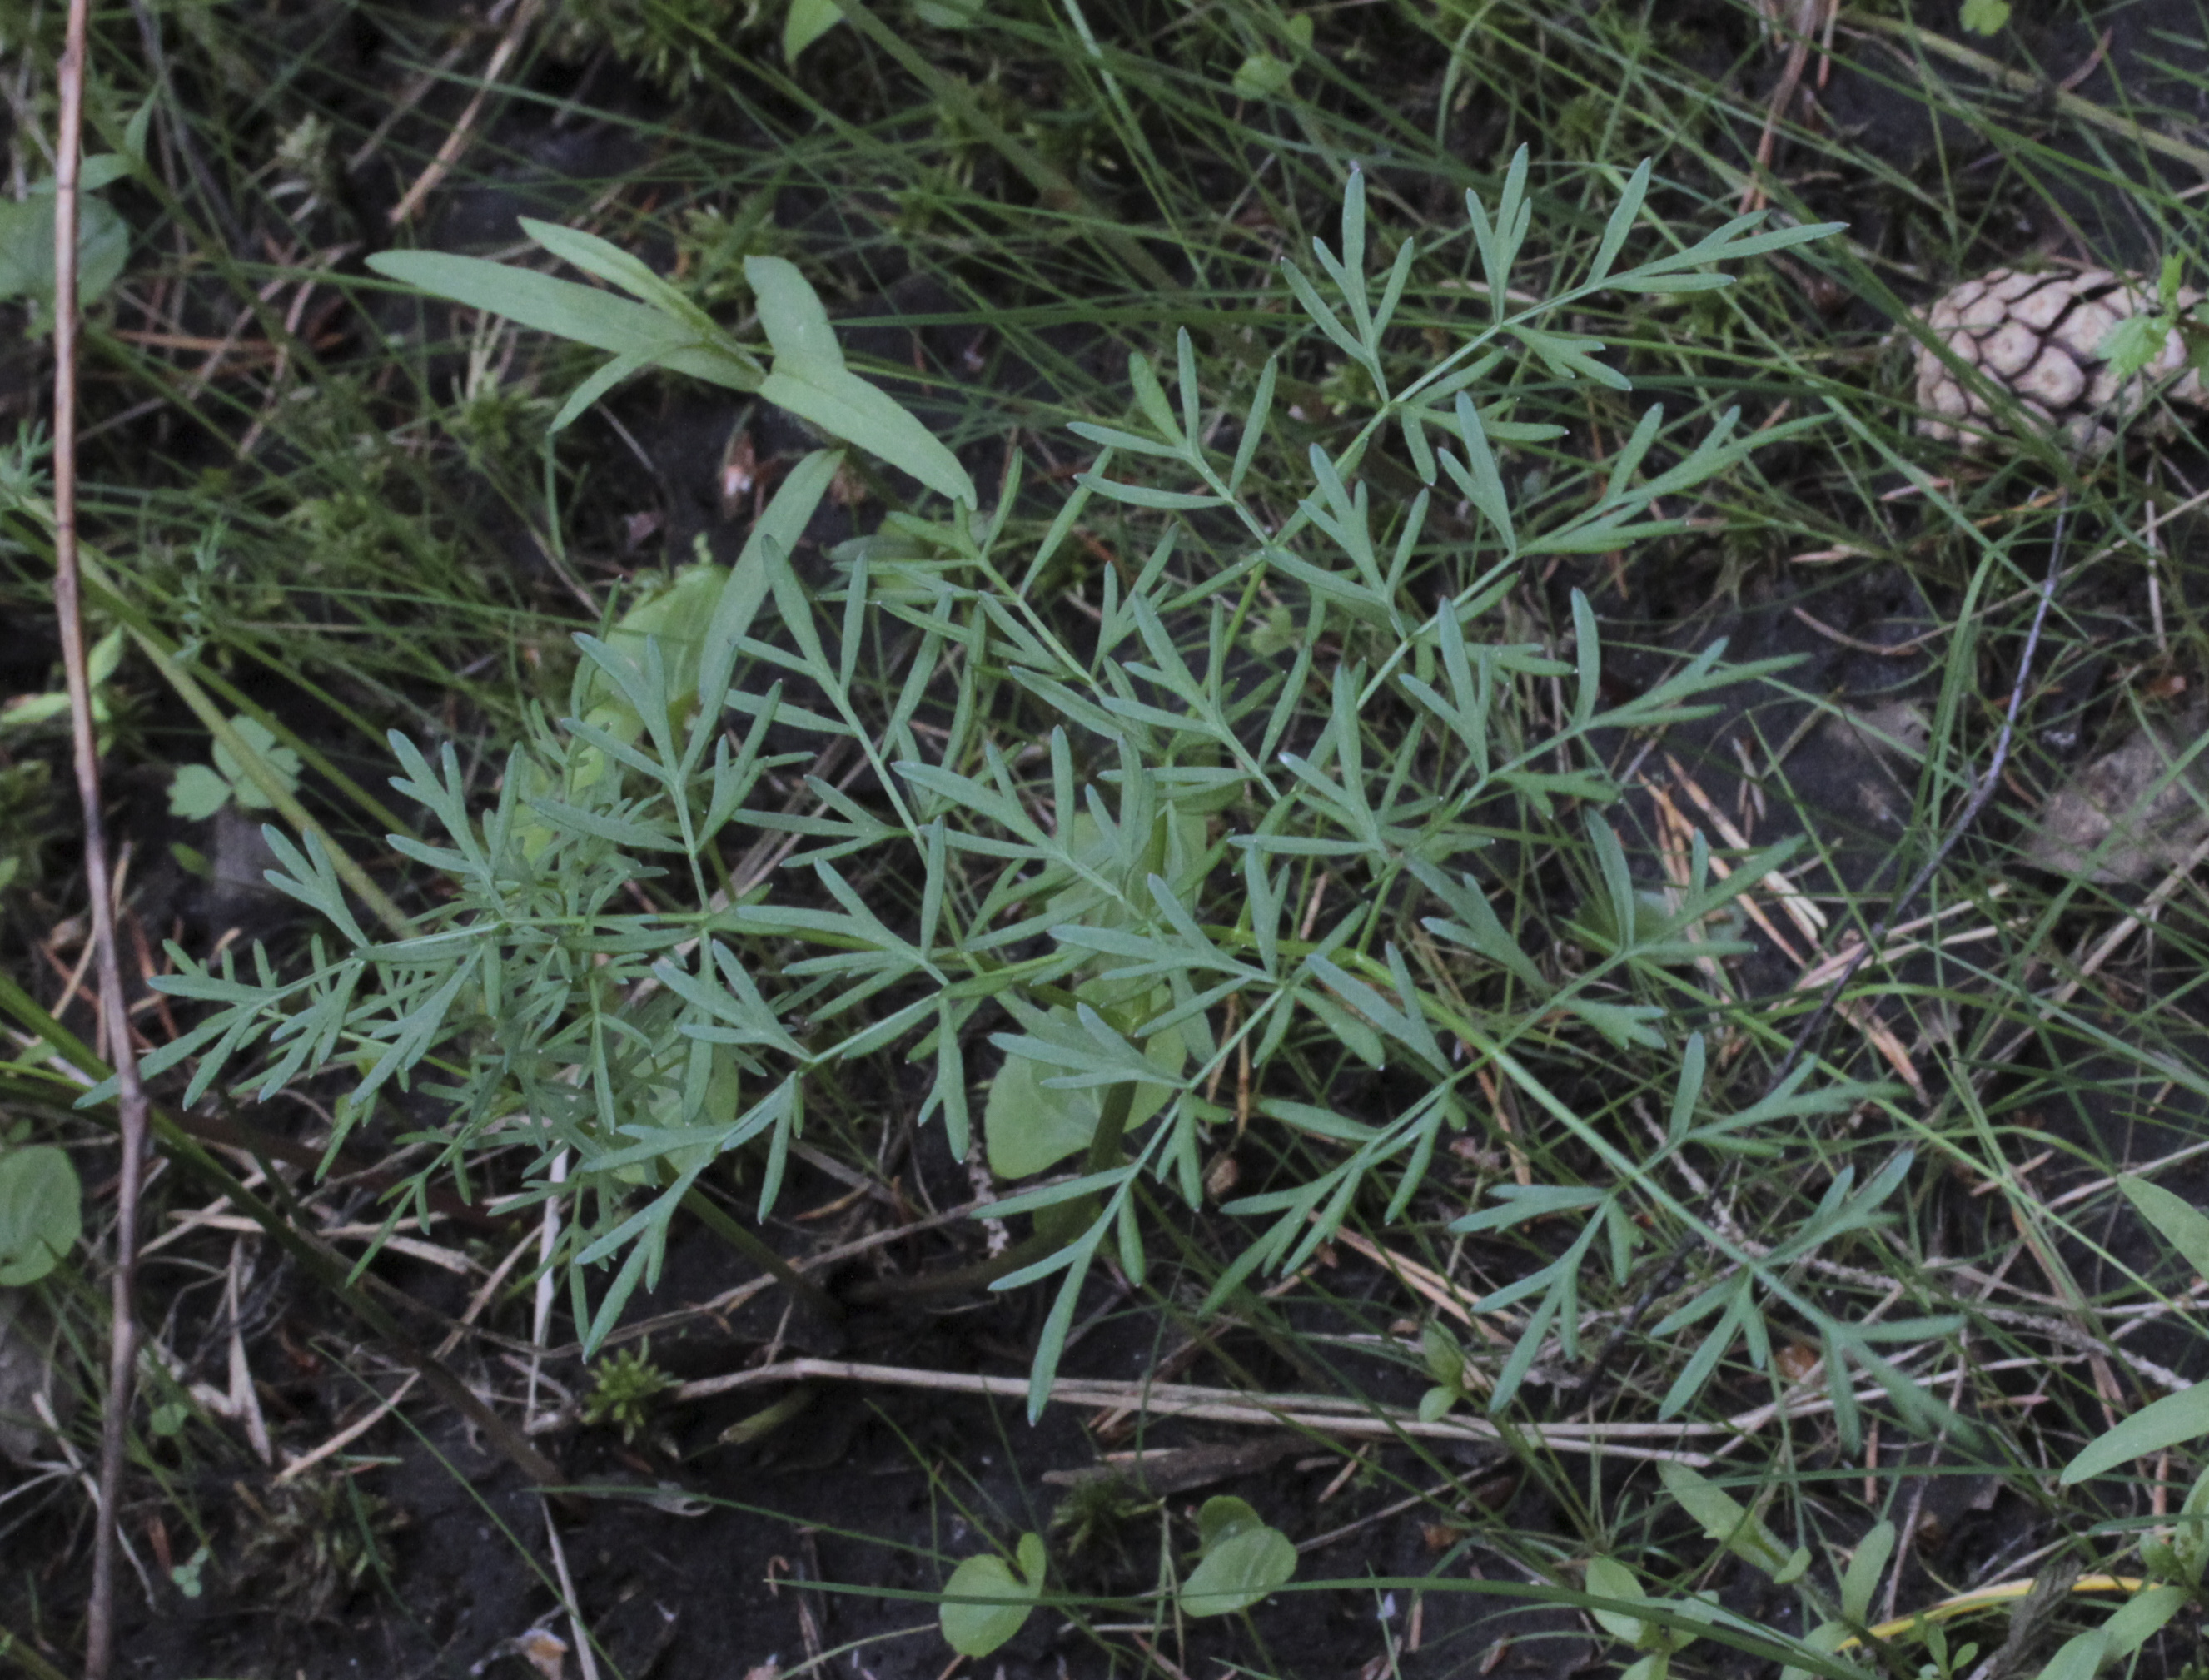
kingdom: Plantae
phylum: Tracheophyta
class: Magnoliopsida
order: Apiales
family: Apiaceae
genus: Peucedanum
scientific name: Peucedanum
